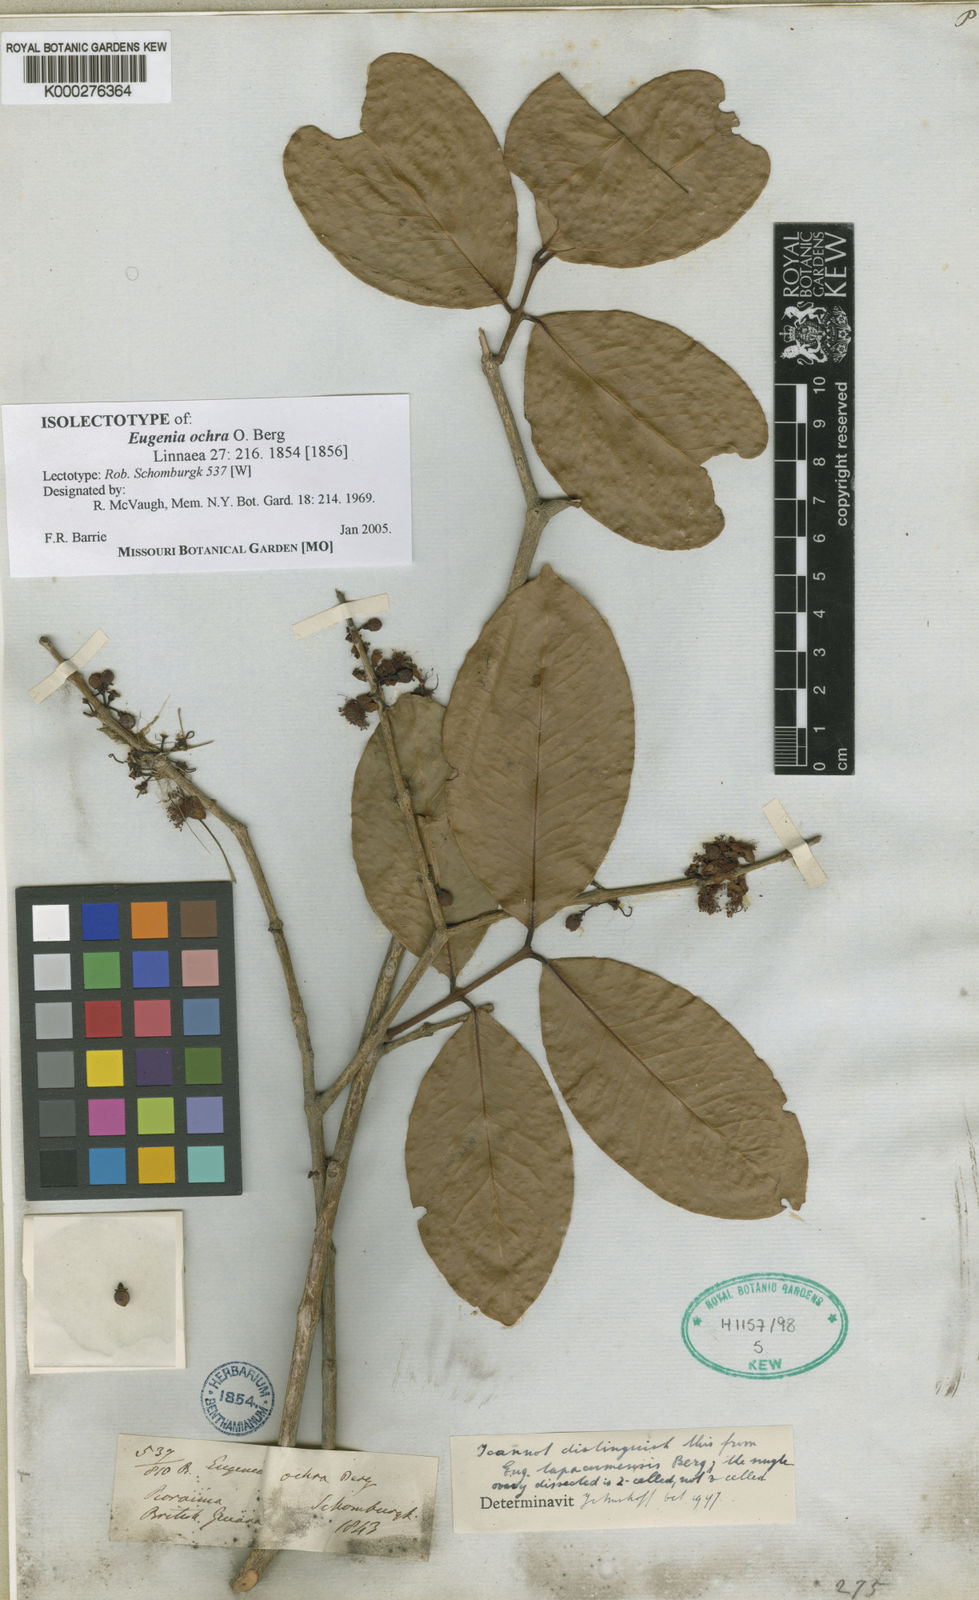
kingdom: Plantae
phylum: Tracheophyta
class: Magnoliopsida
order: Myrtales
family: Myrtaceae
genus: Eugenia
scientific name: Eugenia stictopetala
